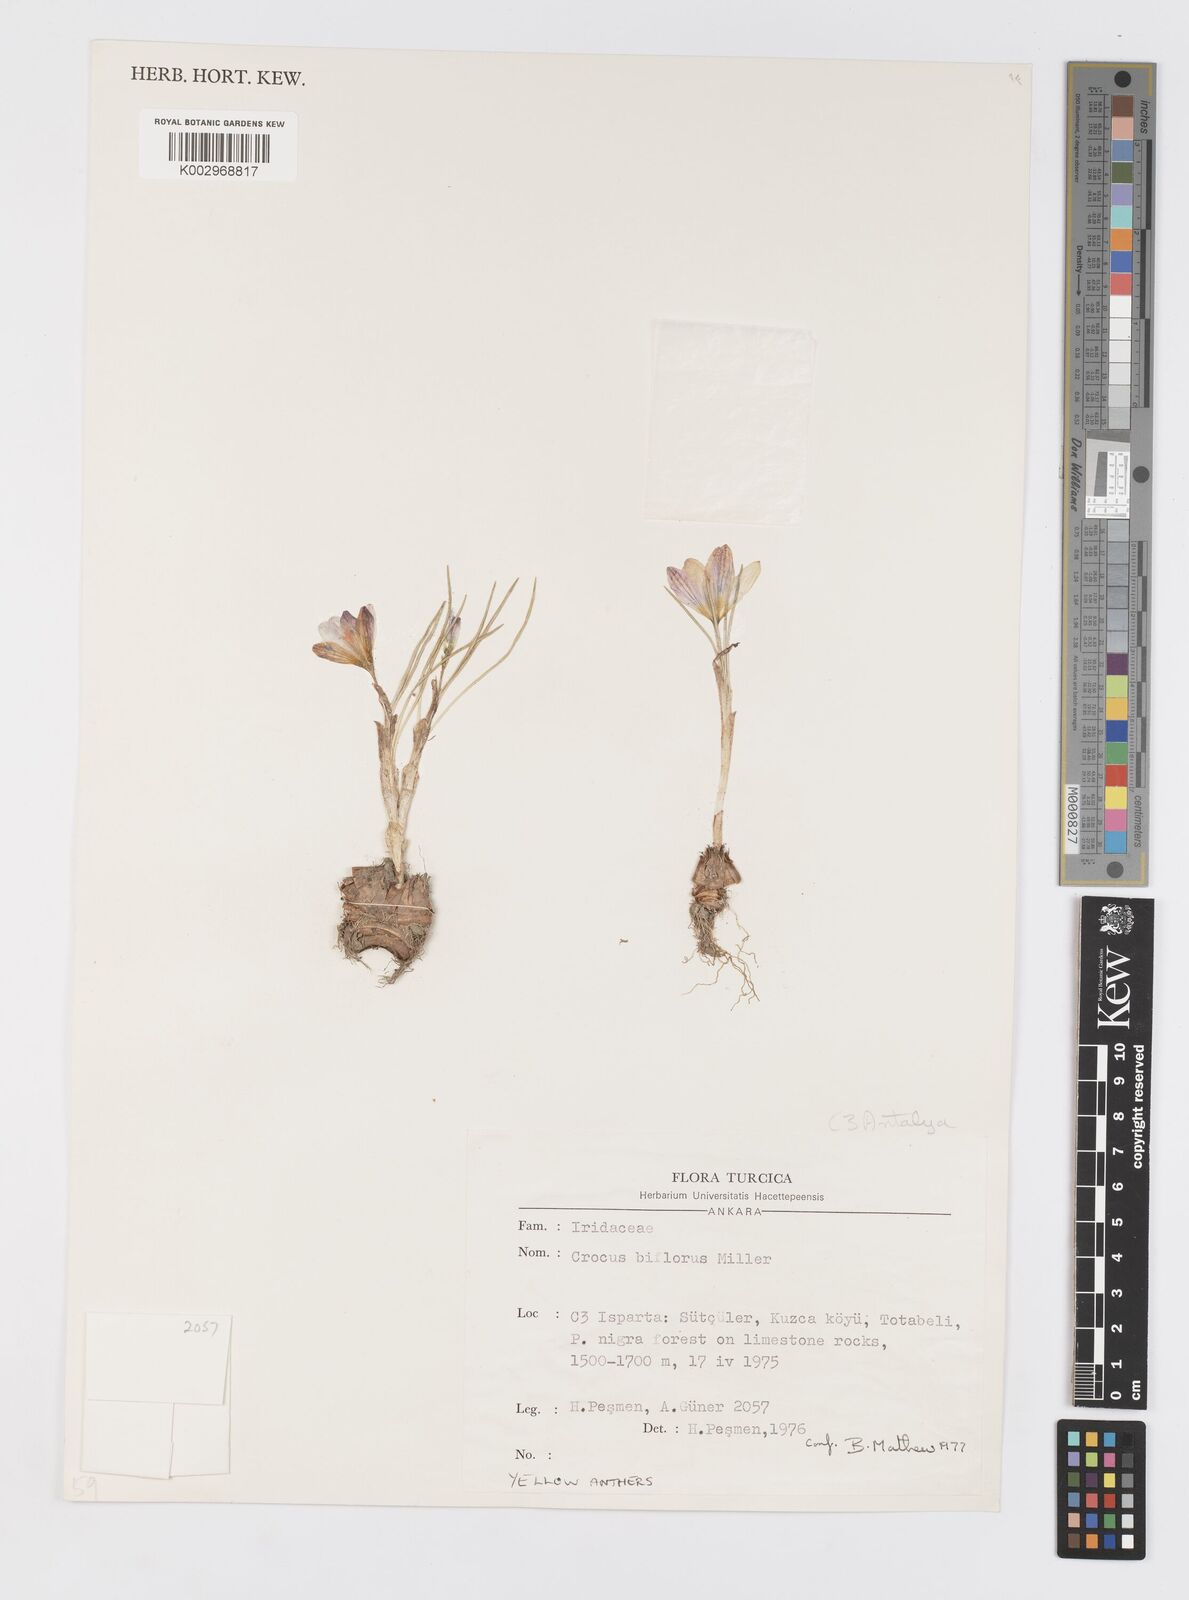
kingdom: Plantae
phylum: Tracheophyta
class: Liliopsida
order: Asparagales
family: Iridaceae
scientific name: Iridaceae
